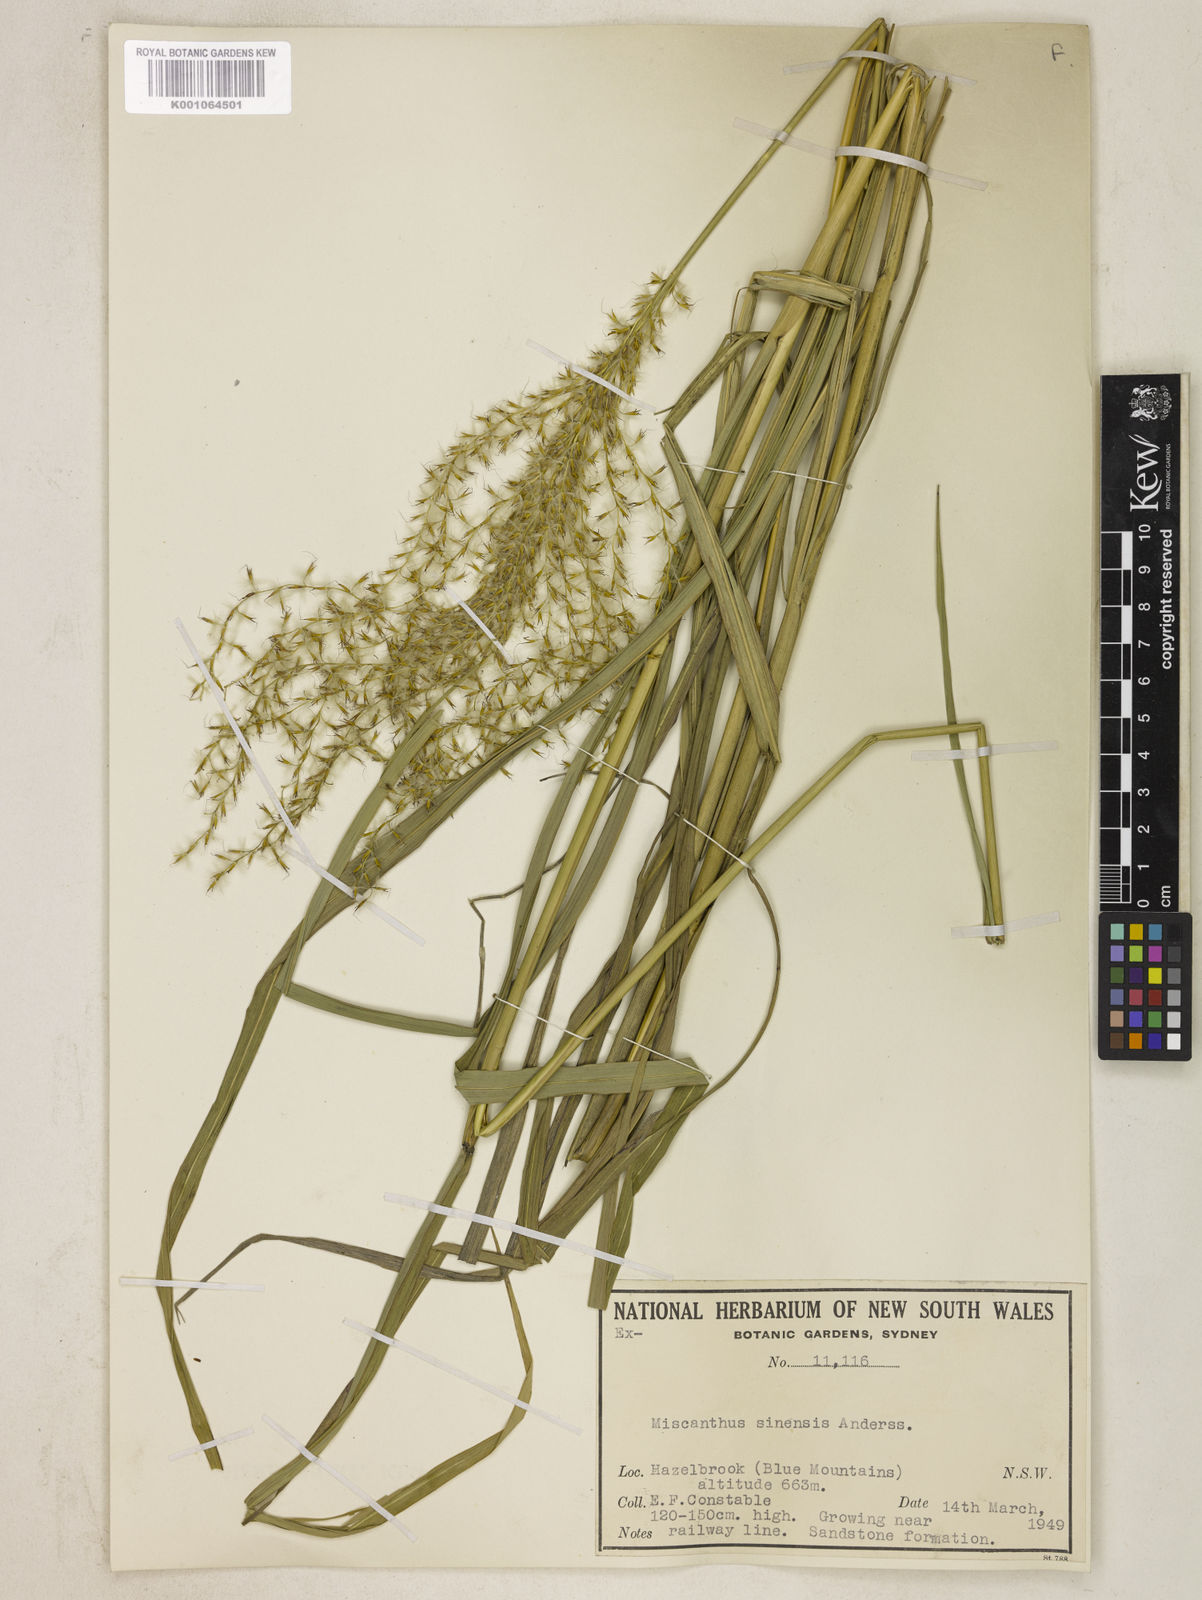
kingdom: Plantae
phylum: Tracheophyta
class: Liliopsida
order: Poales
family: Poaceae
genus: Miscanthus
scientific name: Miscanthus sinensis
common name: Chinese silvergrass
